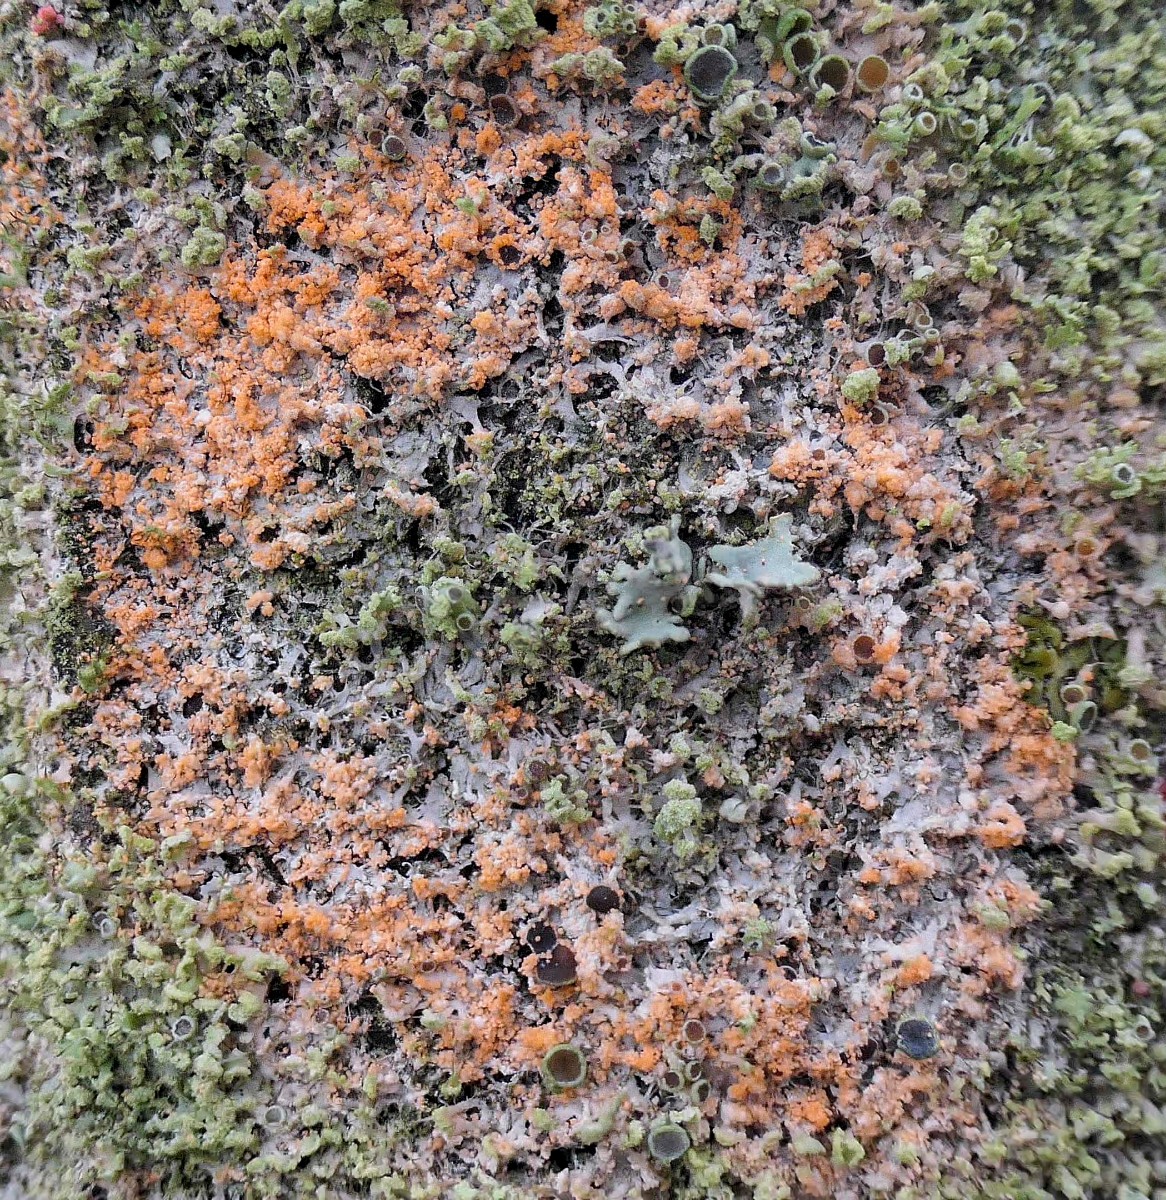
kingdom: Fungi
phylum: Basidiomycota
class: Agaricomycetes
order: Corticiales
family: Corticiaceae
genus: Erythricium
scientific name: Erythricium aurantiacum
